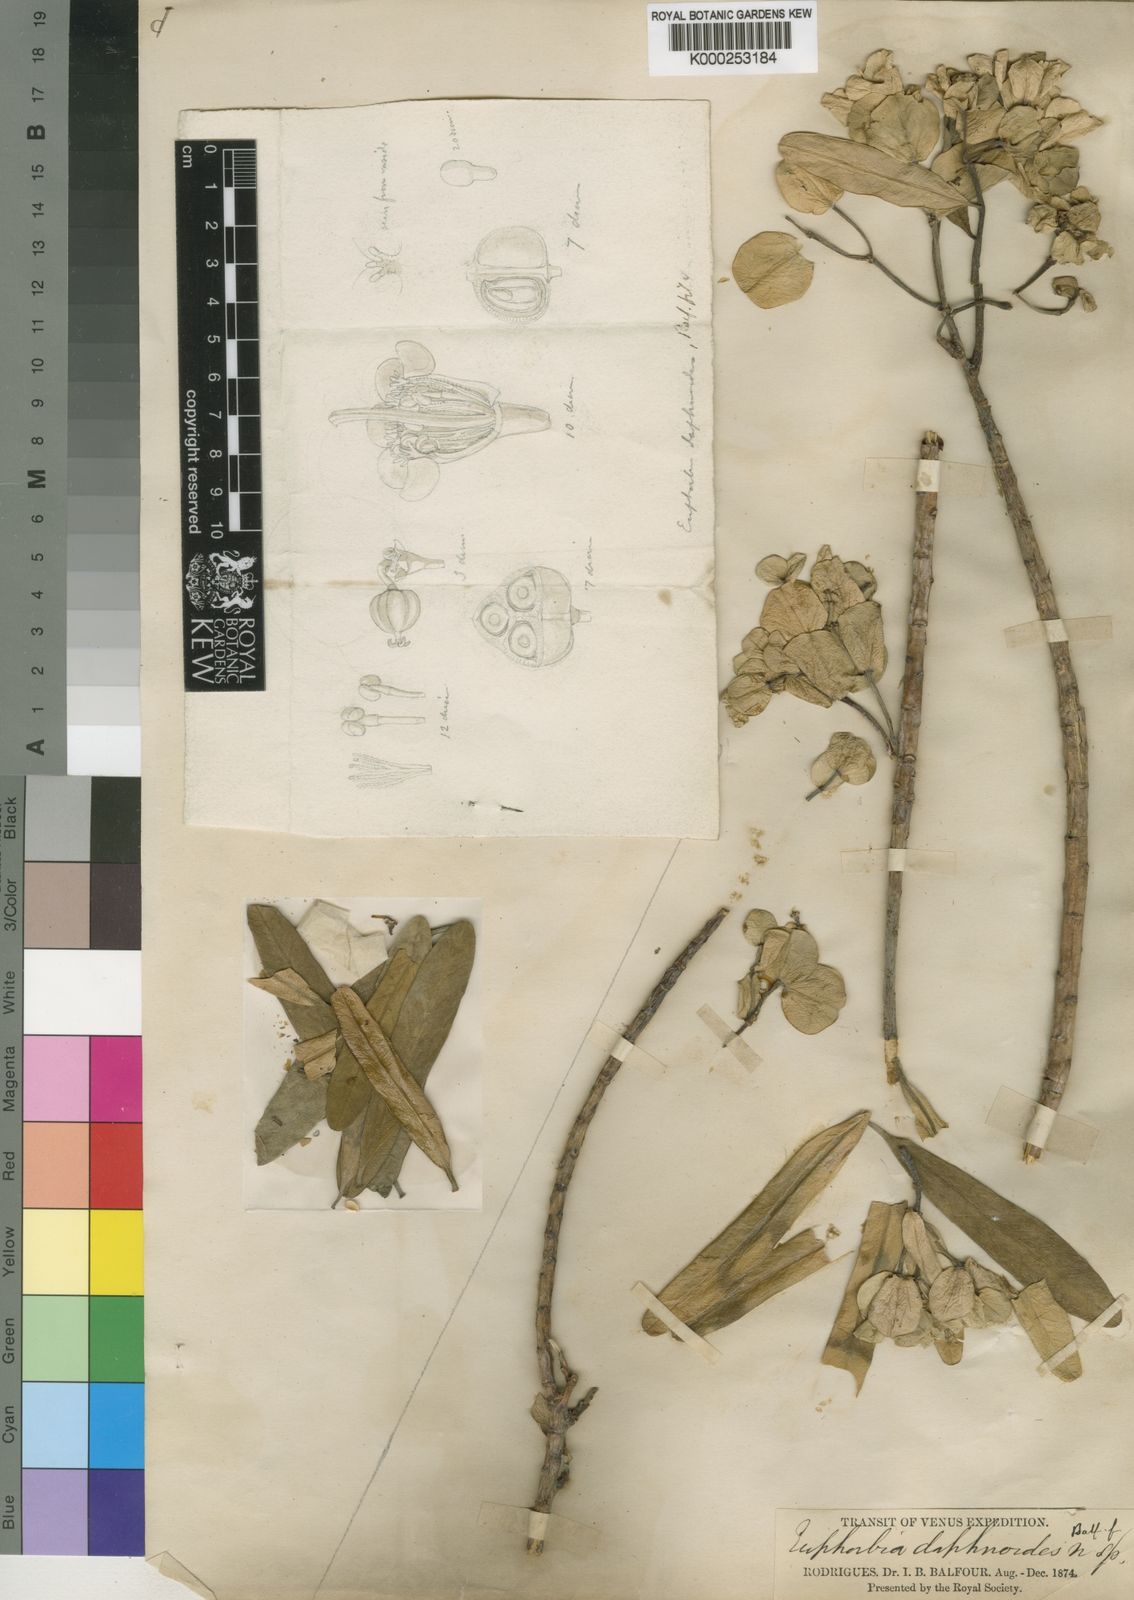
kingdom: Plantae
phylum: Tracheophyta
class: Magnoliopsida
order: Malpighiales
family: Euphorbiaceae
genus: Euphorbia
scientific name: Euphorbia pyrifolia
